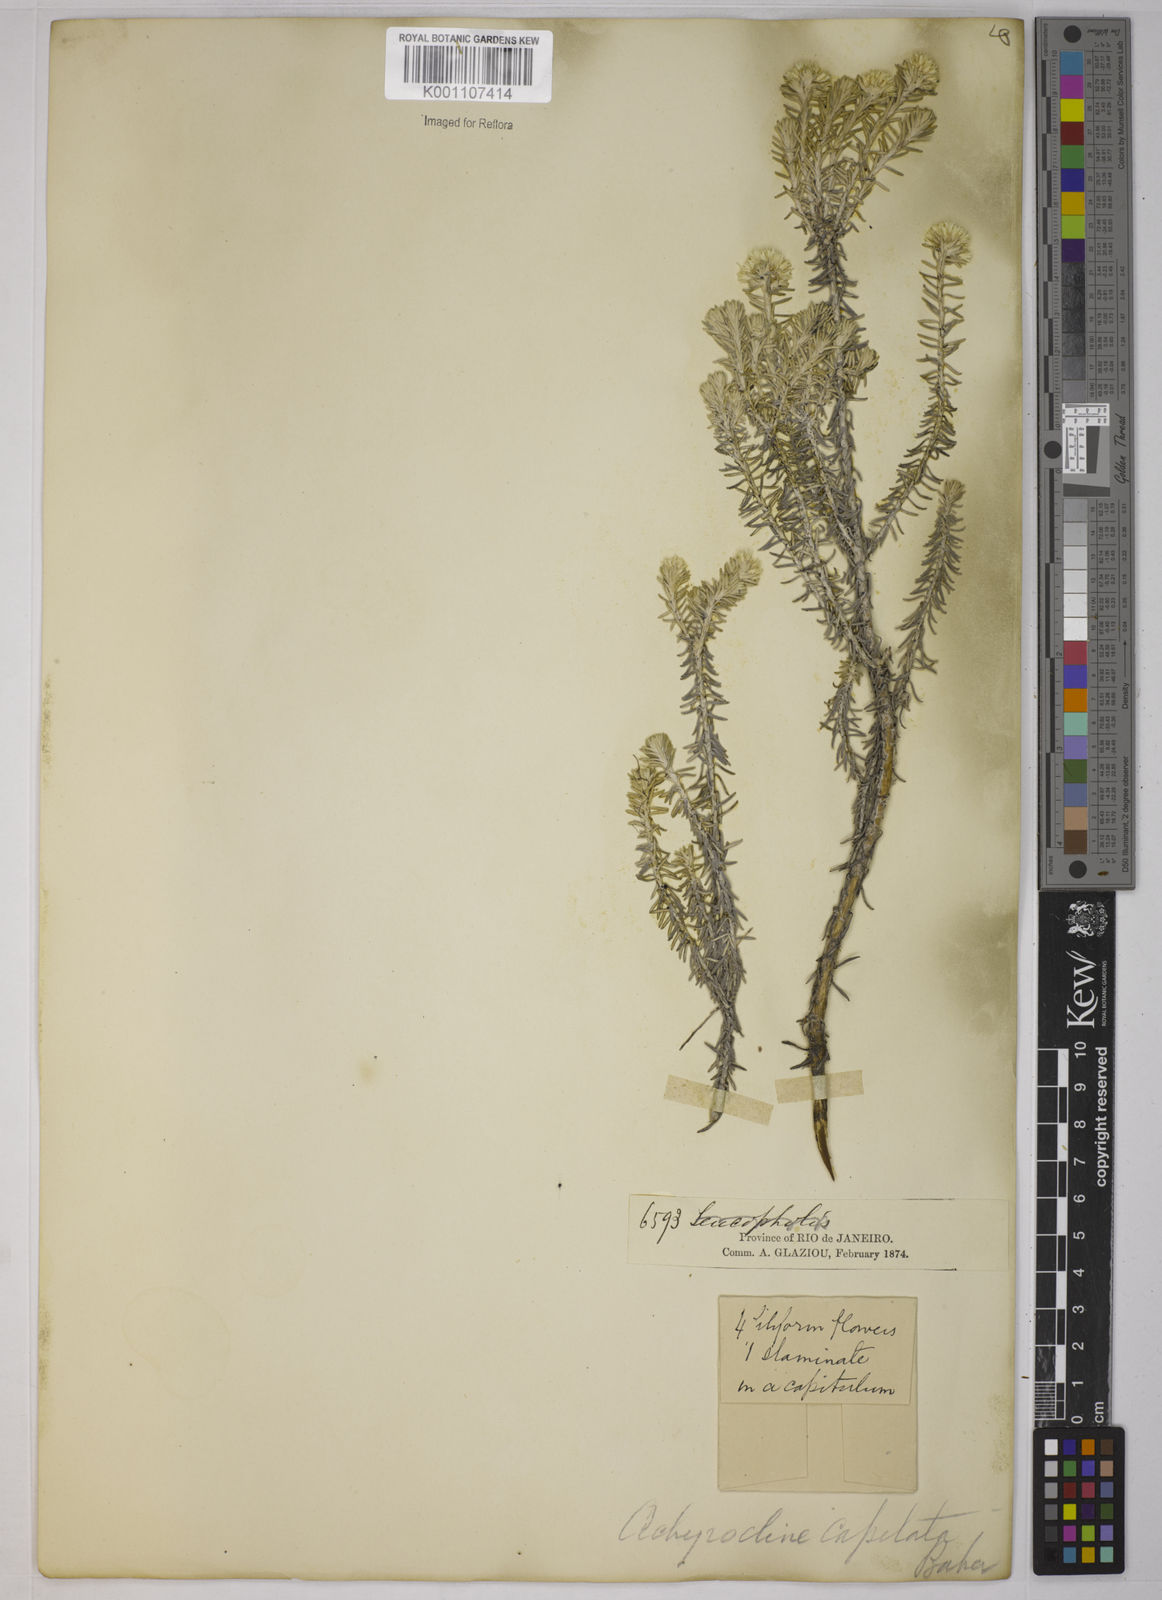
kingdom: Plantae
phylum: Tracheophyta
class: Magnoliopsida
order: Asterales
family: Asteraceae
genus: Chionolaena
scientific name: Chionolaena capitata
